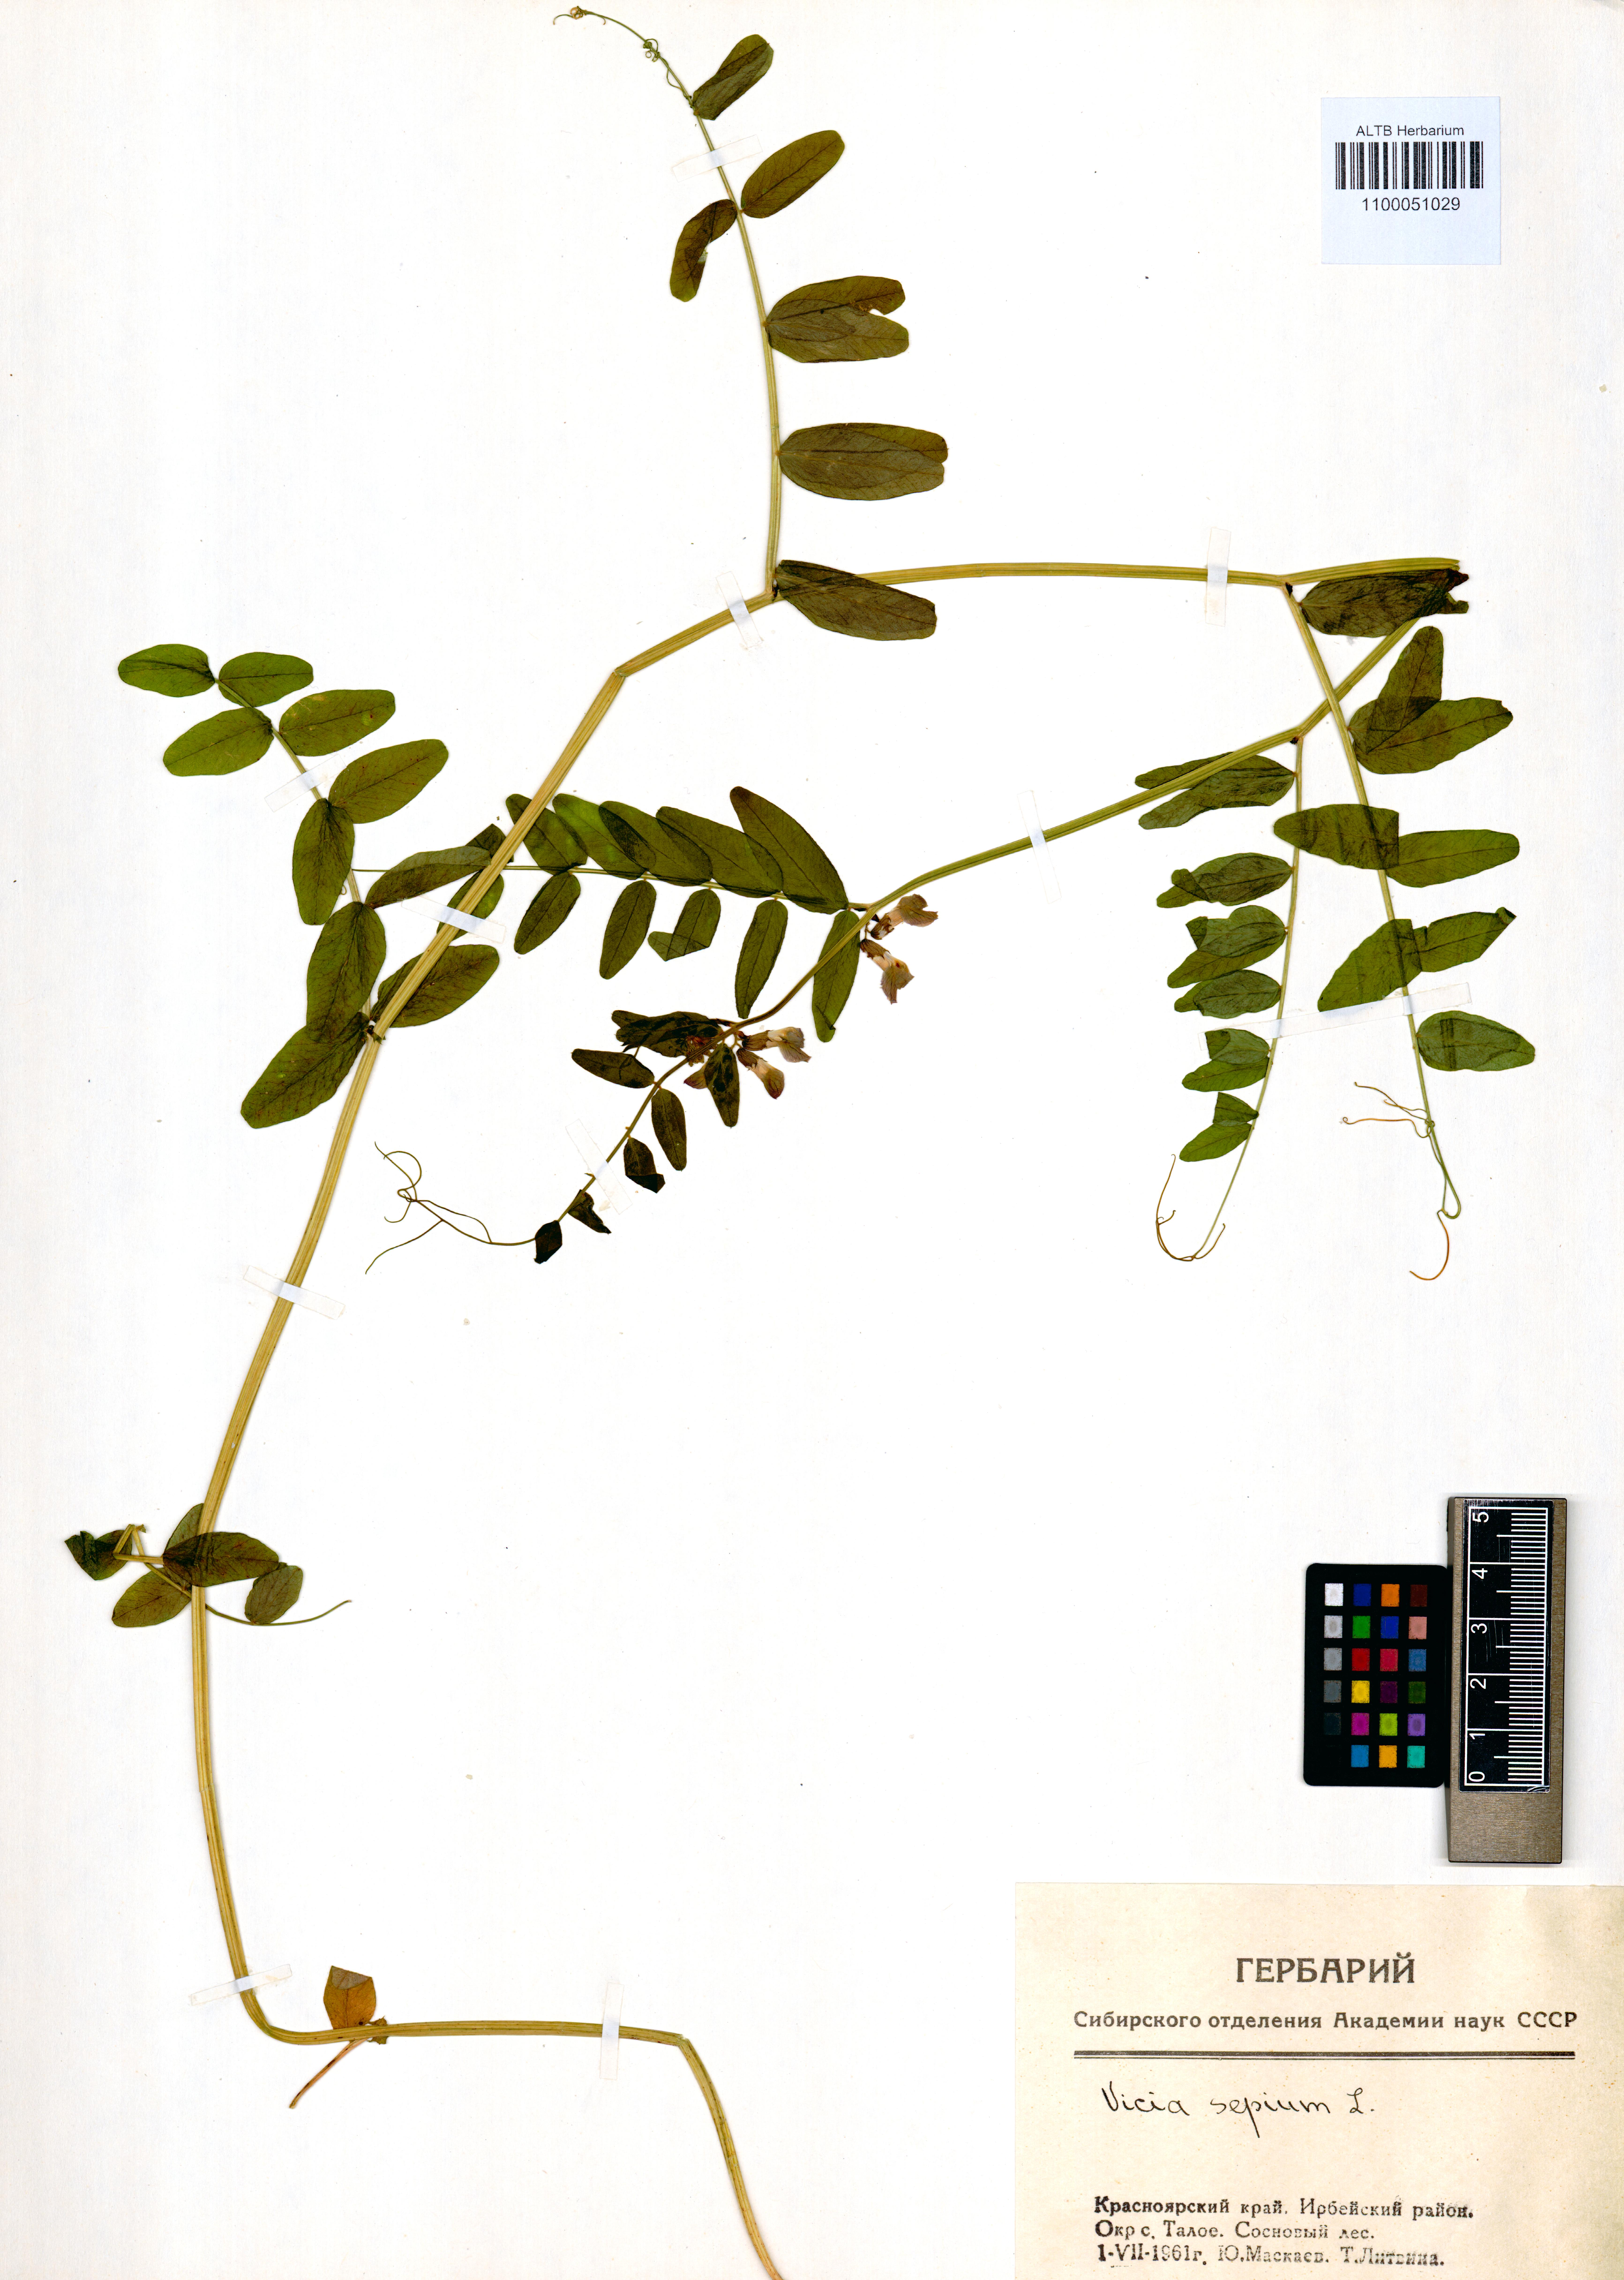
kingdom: Plantae
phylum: Tracheophyta
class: Magnoliopsida
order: Fabales
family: Fabaceae
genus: Vicia
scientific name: Vicia sepium
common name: Bush vetch
